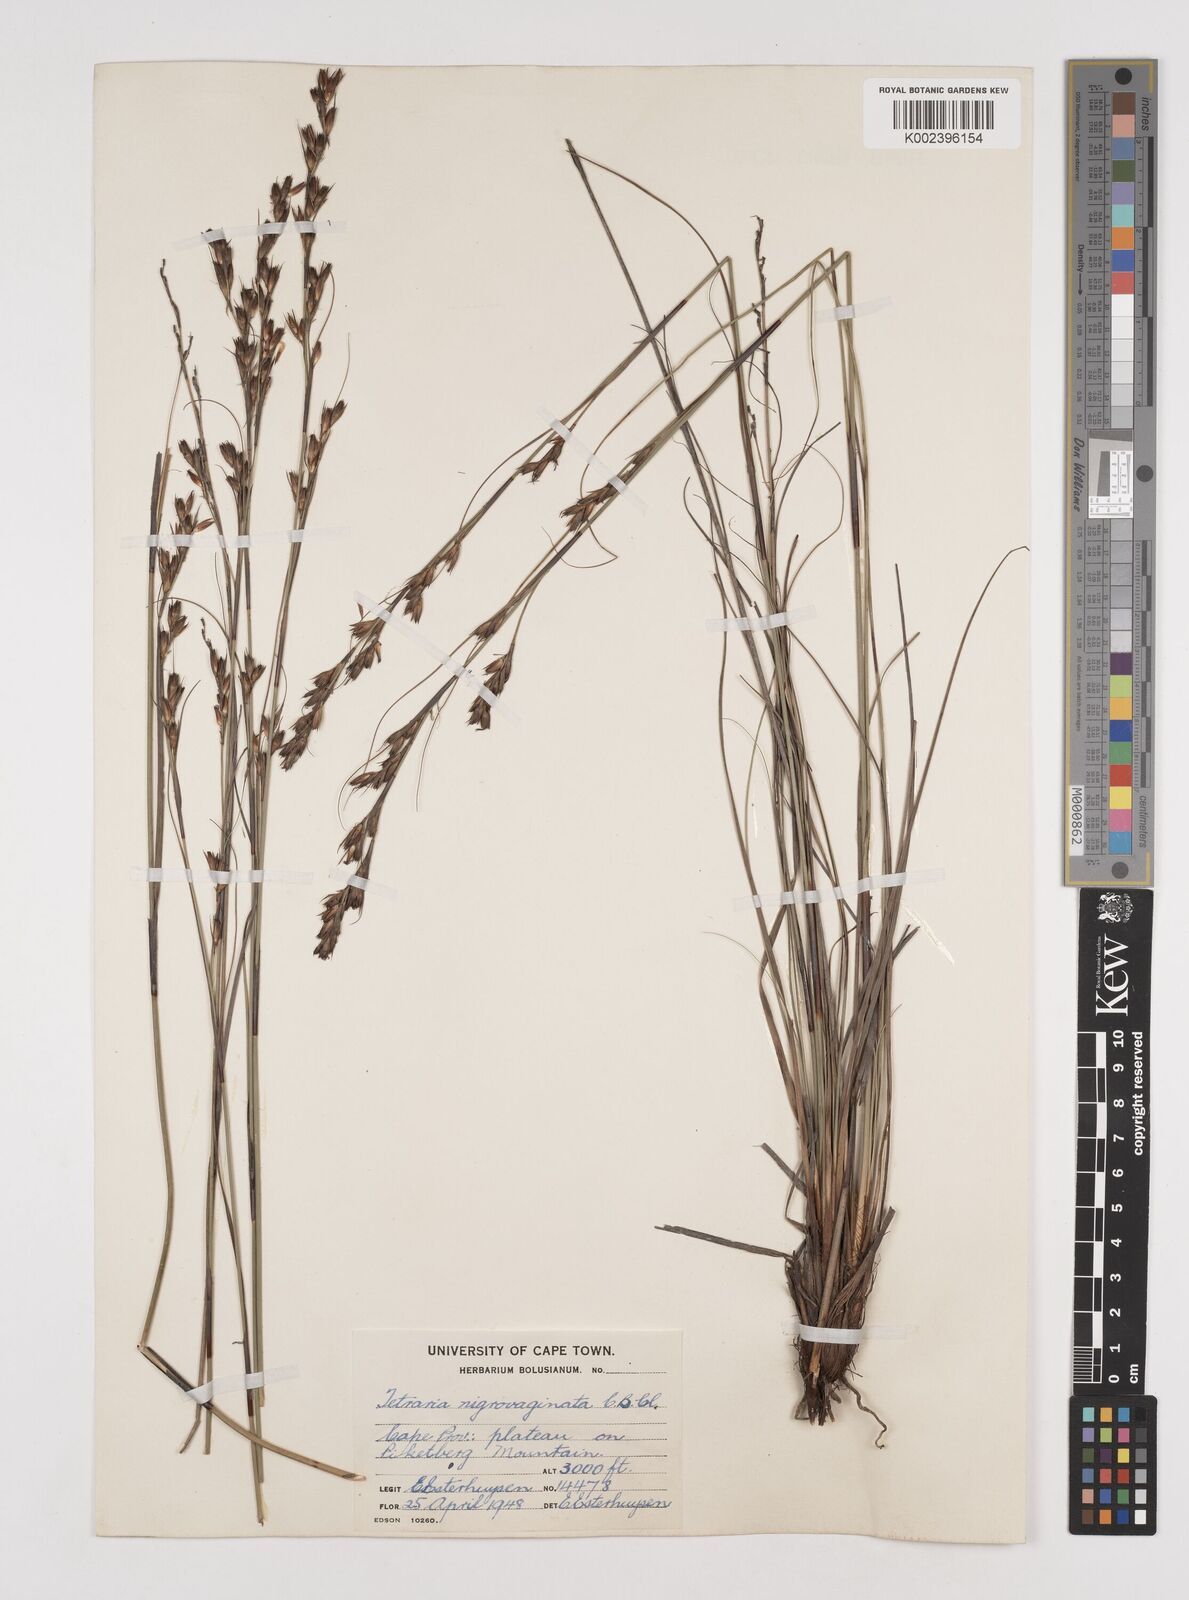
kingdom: Plantae
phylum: Tracheophyta
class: Liliopsida
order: Poales
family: Cyperaceae
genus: Tetraria
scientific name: Tetraria nigrovaginata
